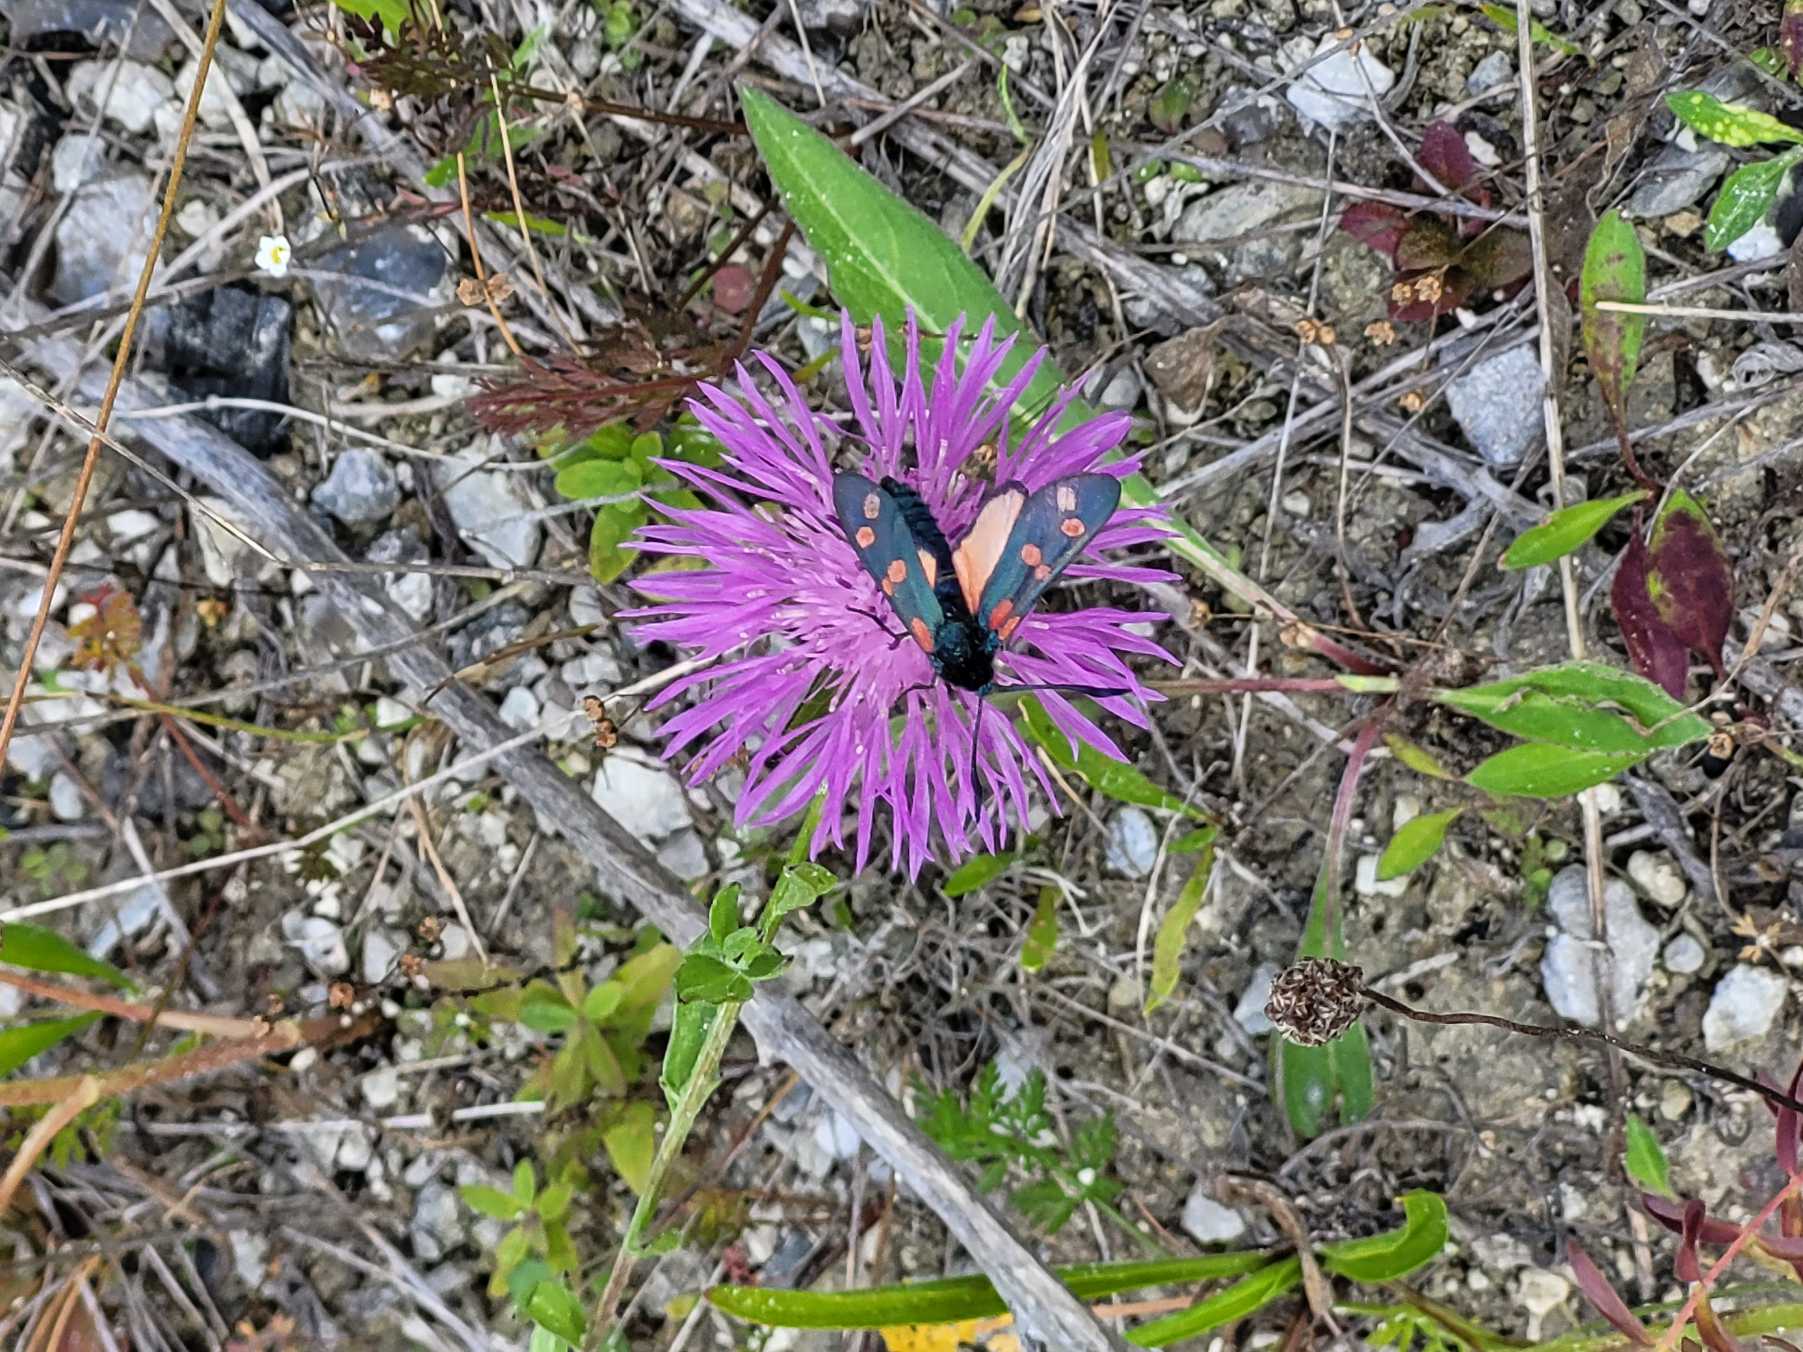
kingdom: Animalia
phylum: Arthropoda
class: Insecta
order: Lepidoptera
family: Zygaenidae
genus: Zygaena
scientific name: Zygaena filipendulae
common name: Seksplettet køllesværmer
